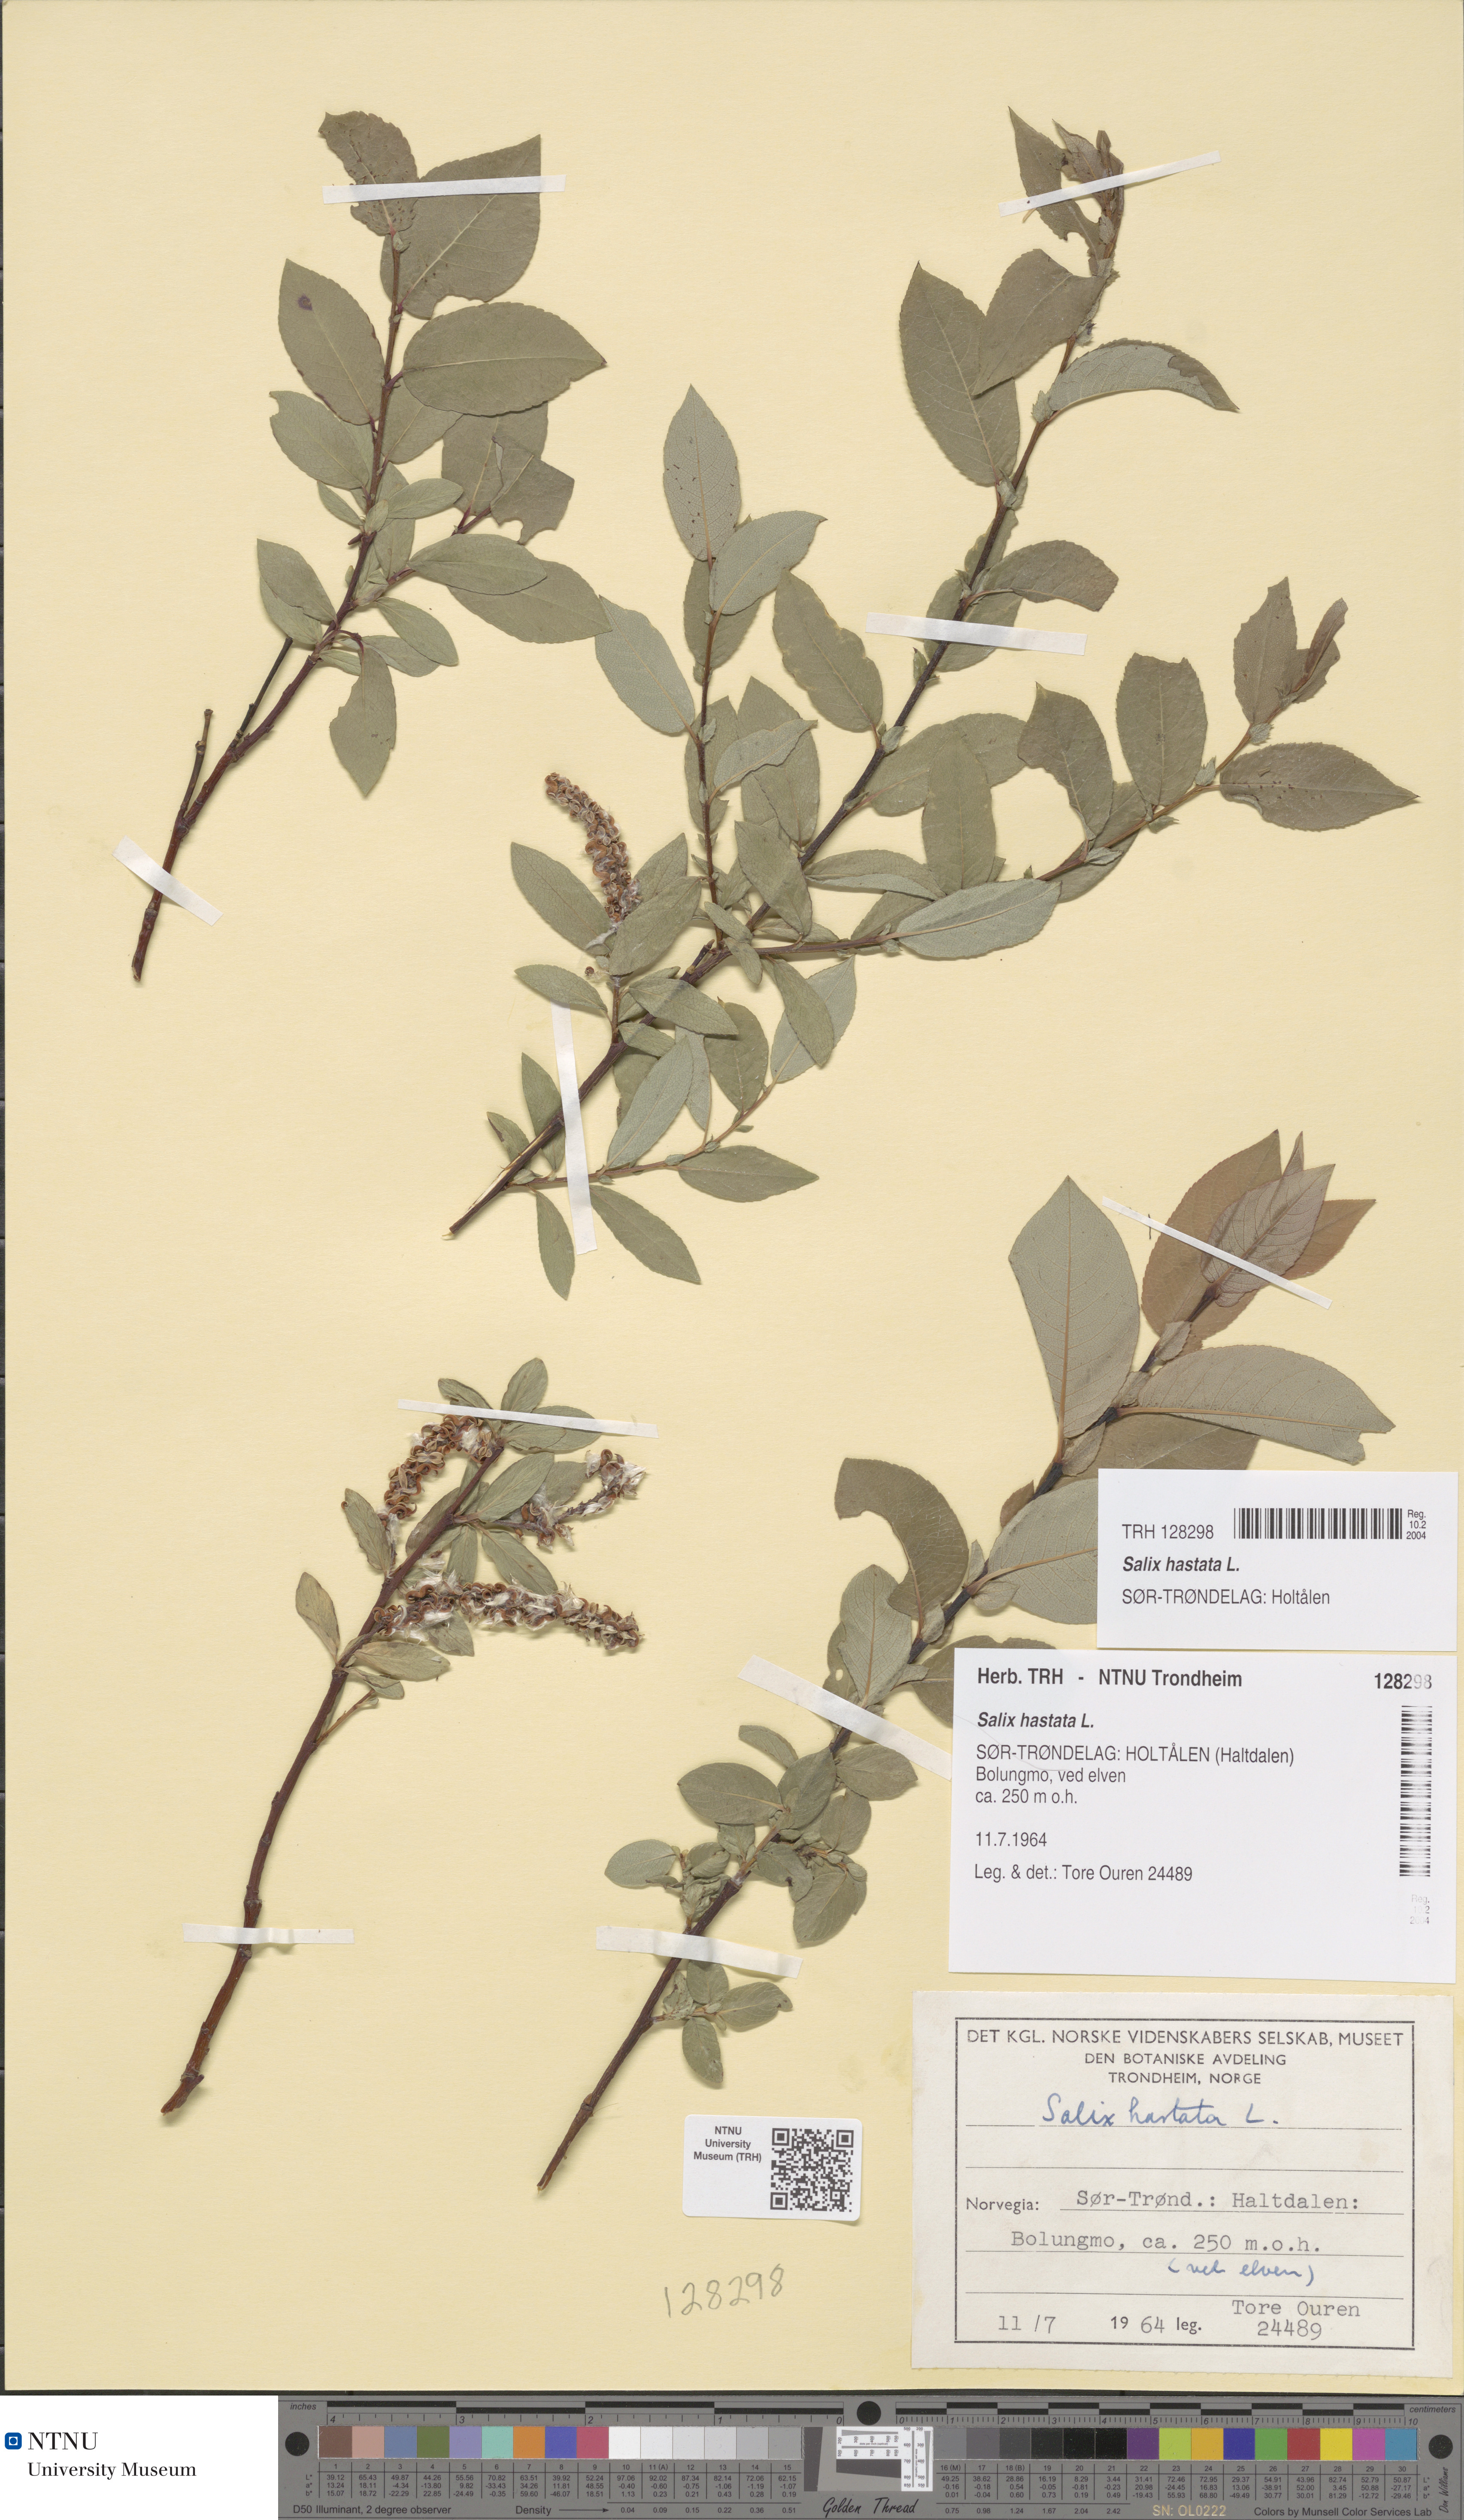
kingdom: Plantae
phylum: Tracheophyta
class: Magnoliopsida
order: Malpighiales
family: Salicaceae
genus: Salix
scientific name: Salix hastata
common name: Halberd willow
